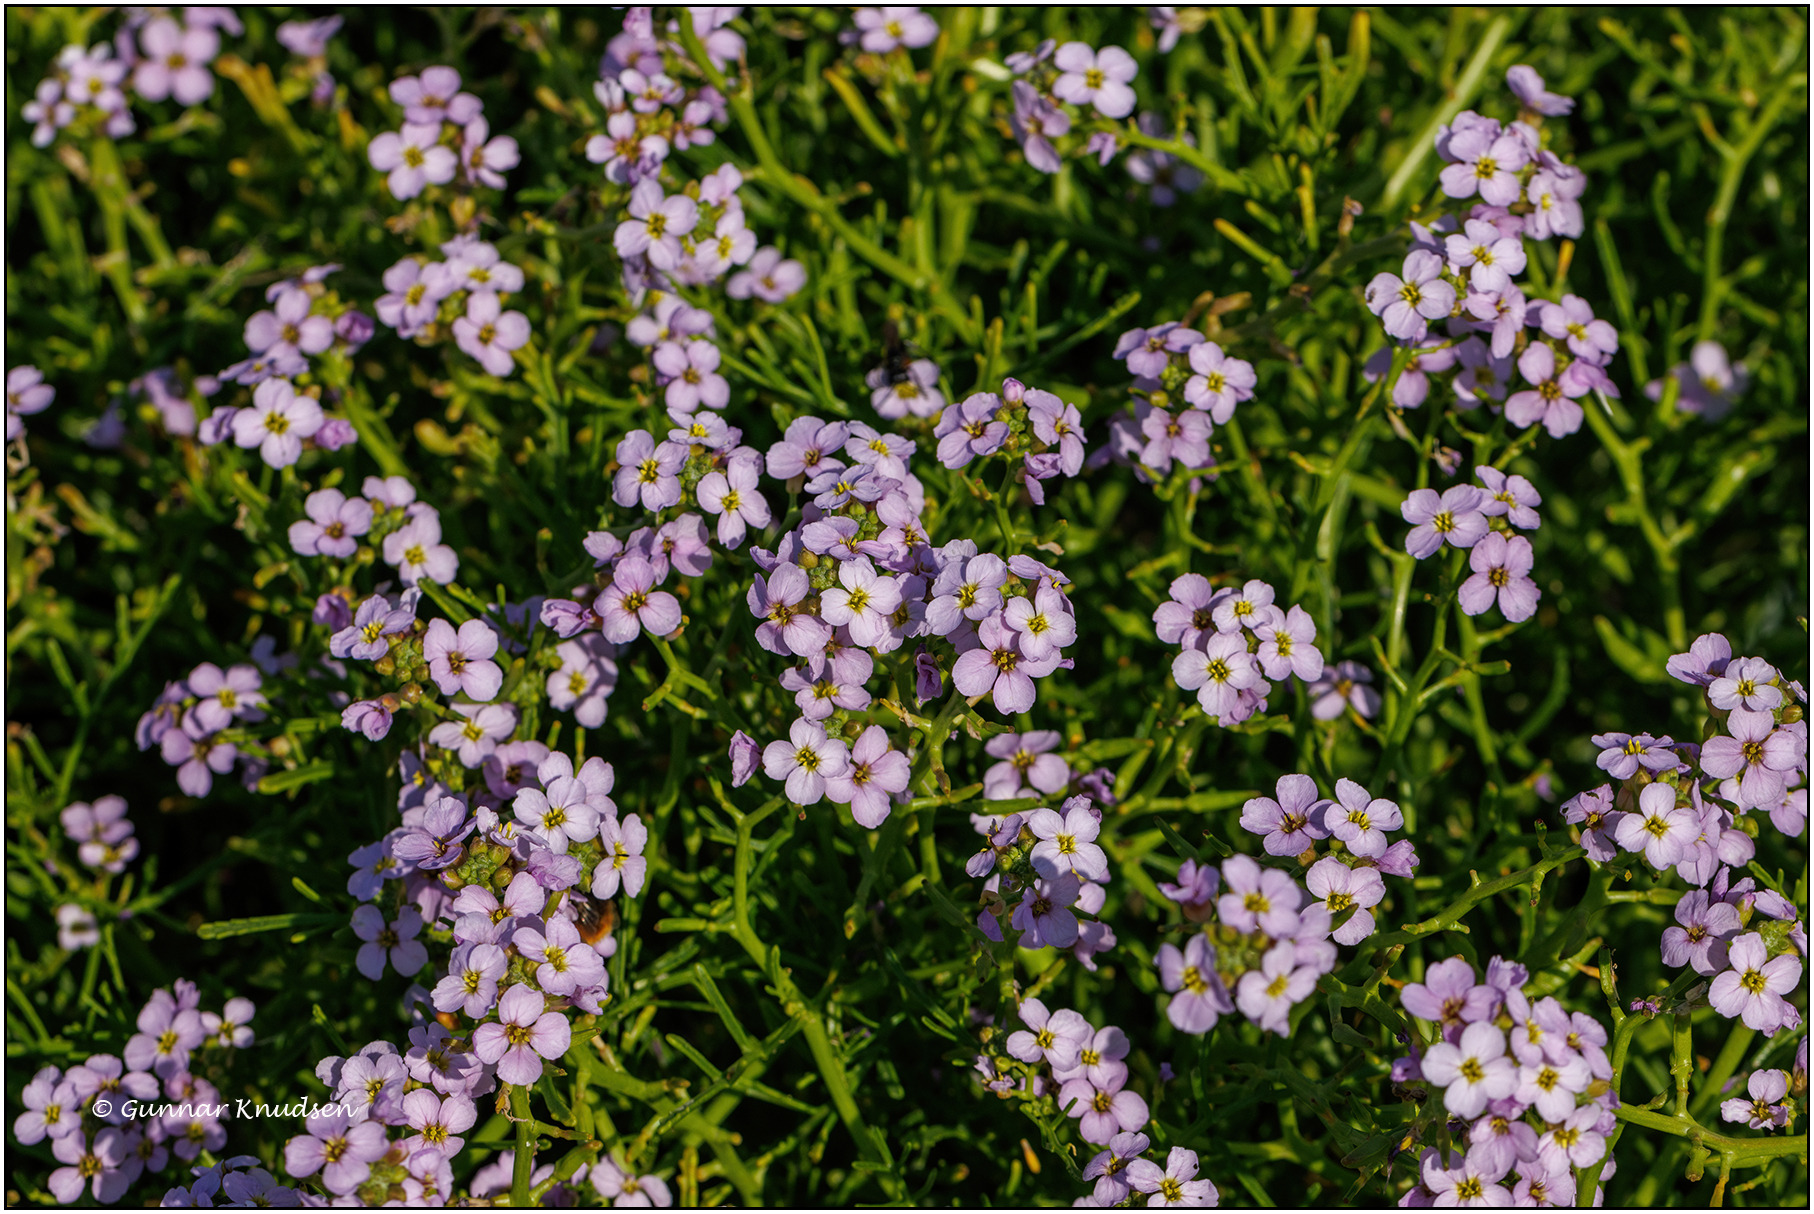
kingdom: Plantae
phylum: Tracheophyta
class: Magnoliopsida
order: Brassicales
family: Brassicaceae
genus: Cakile
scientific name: Cakile maritima
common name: Østersø-strandsennep
